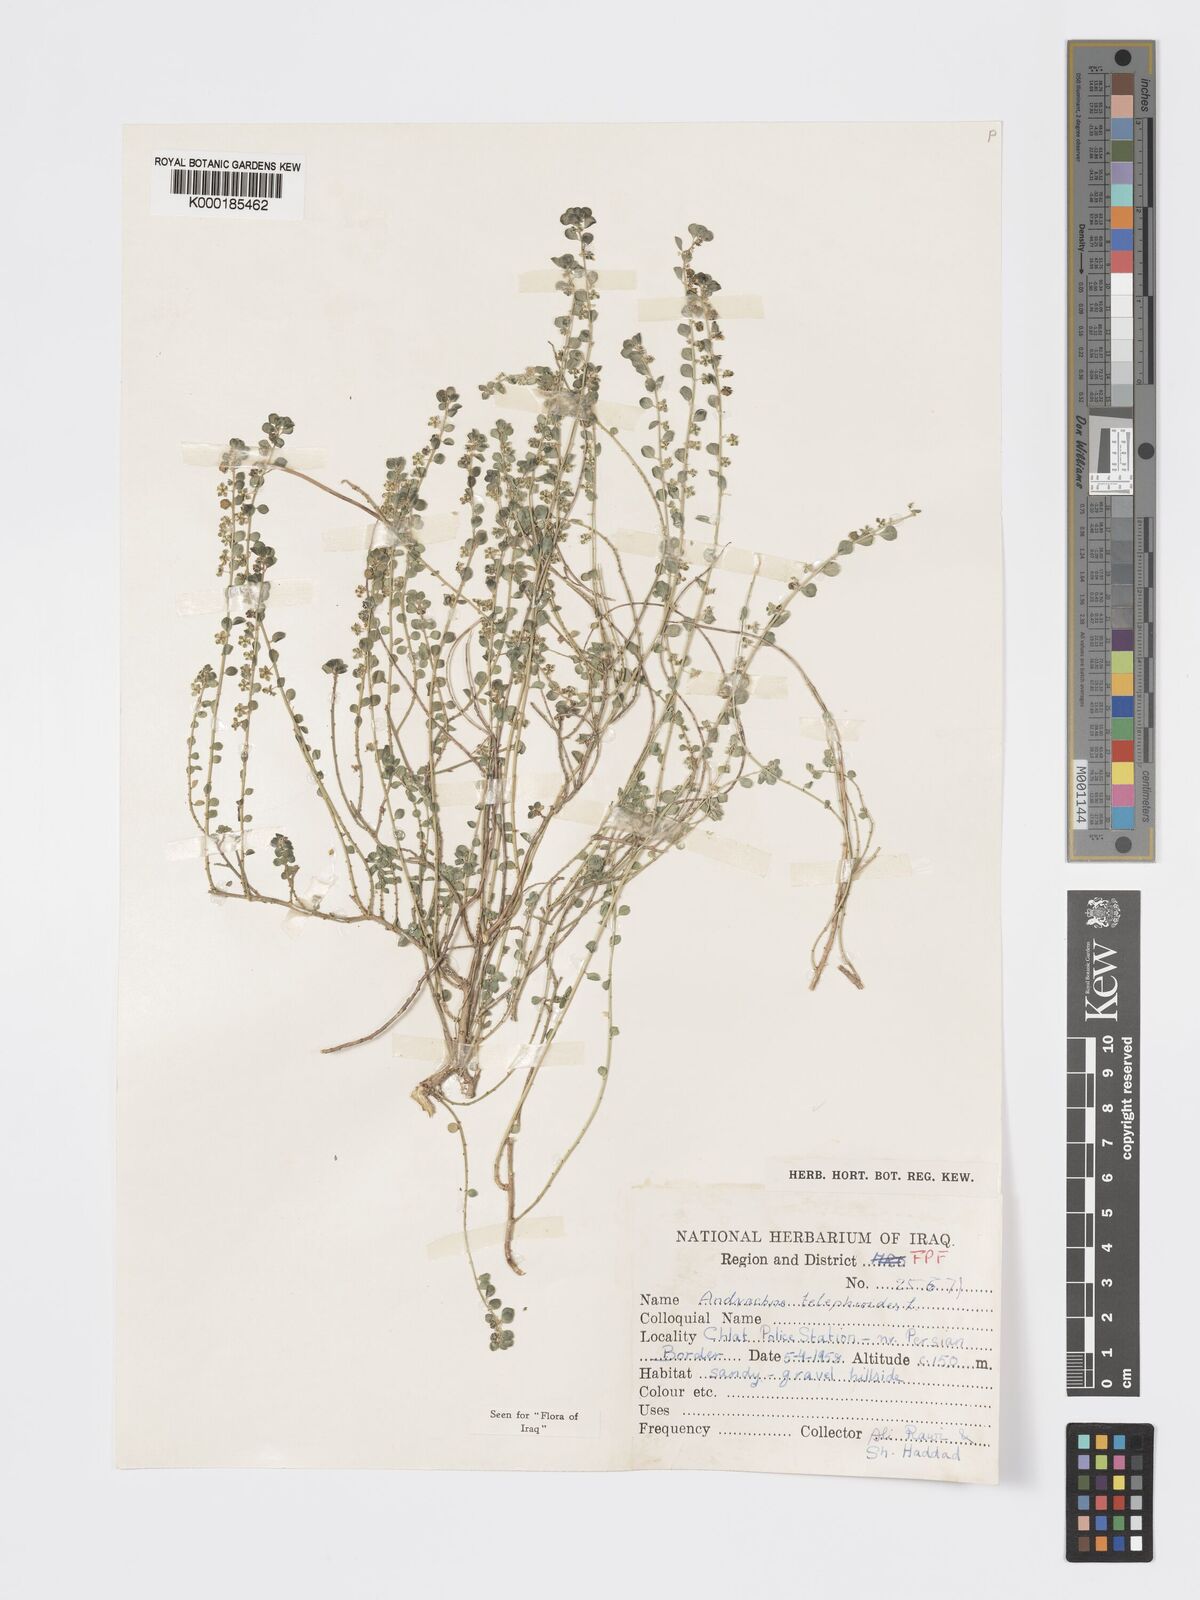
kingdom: Plantae
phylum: Tracheophyta
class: Magnoliopsida
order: Malpighiales
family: Phyllanthaceae
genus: Andrachne
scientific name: Andrachne telephioides
